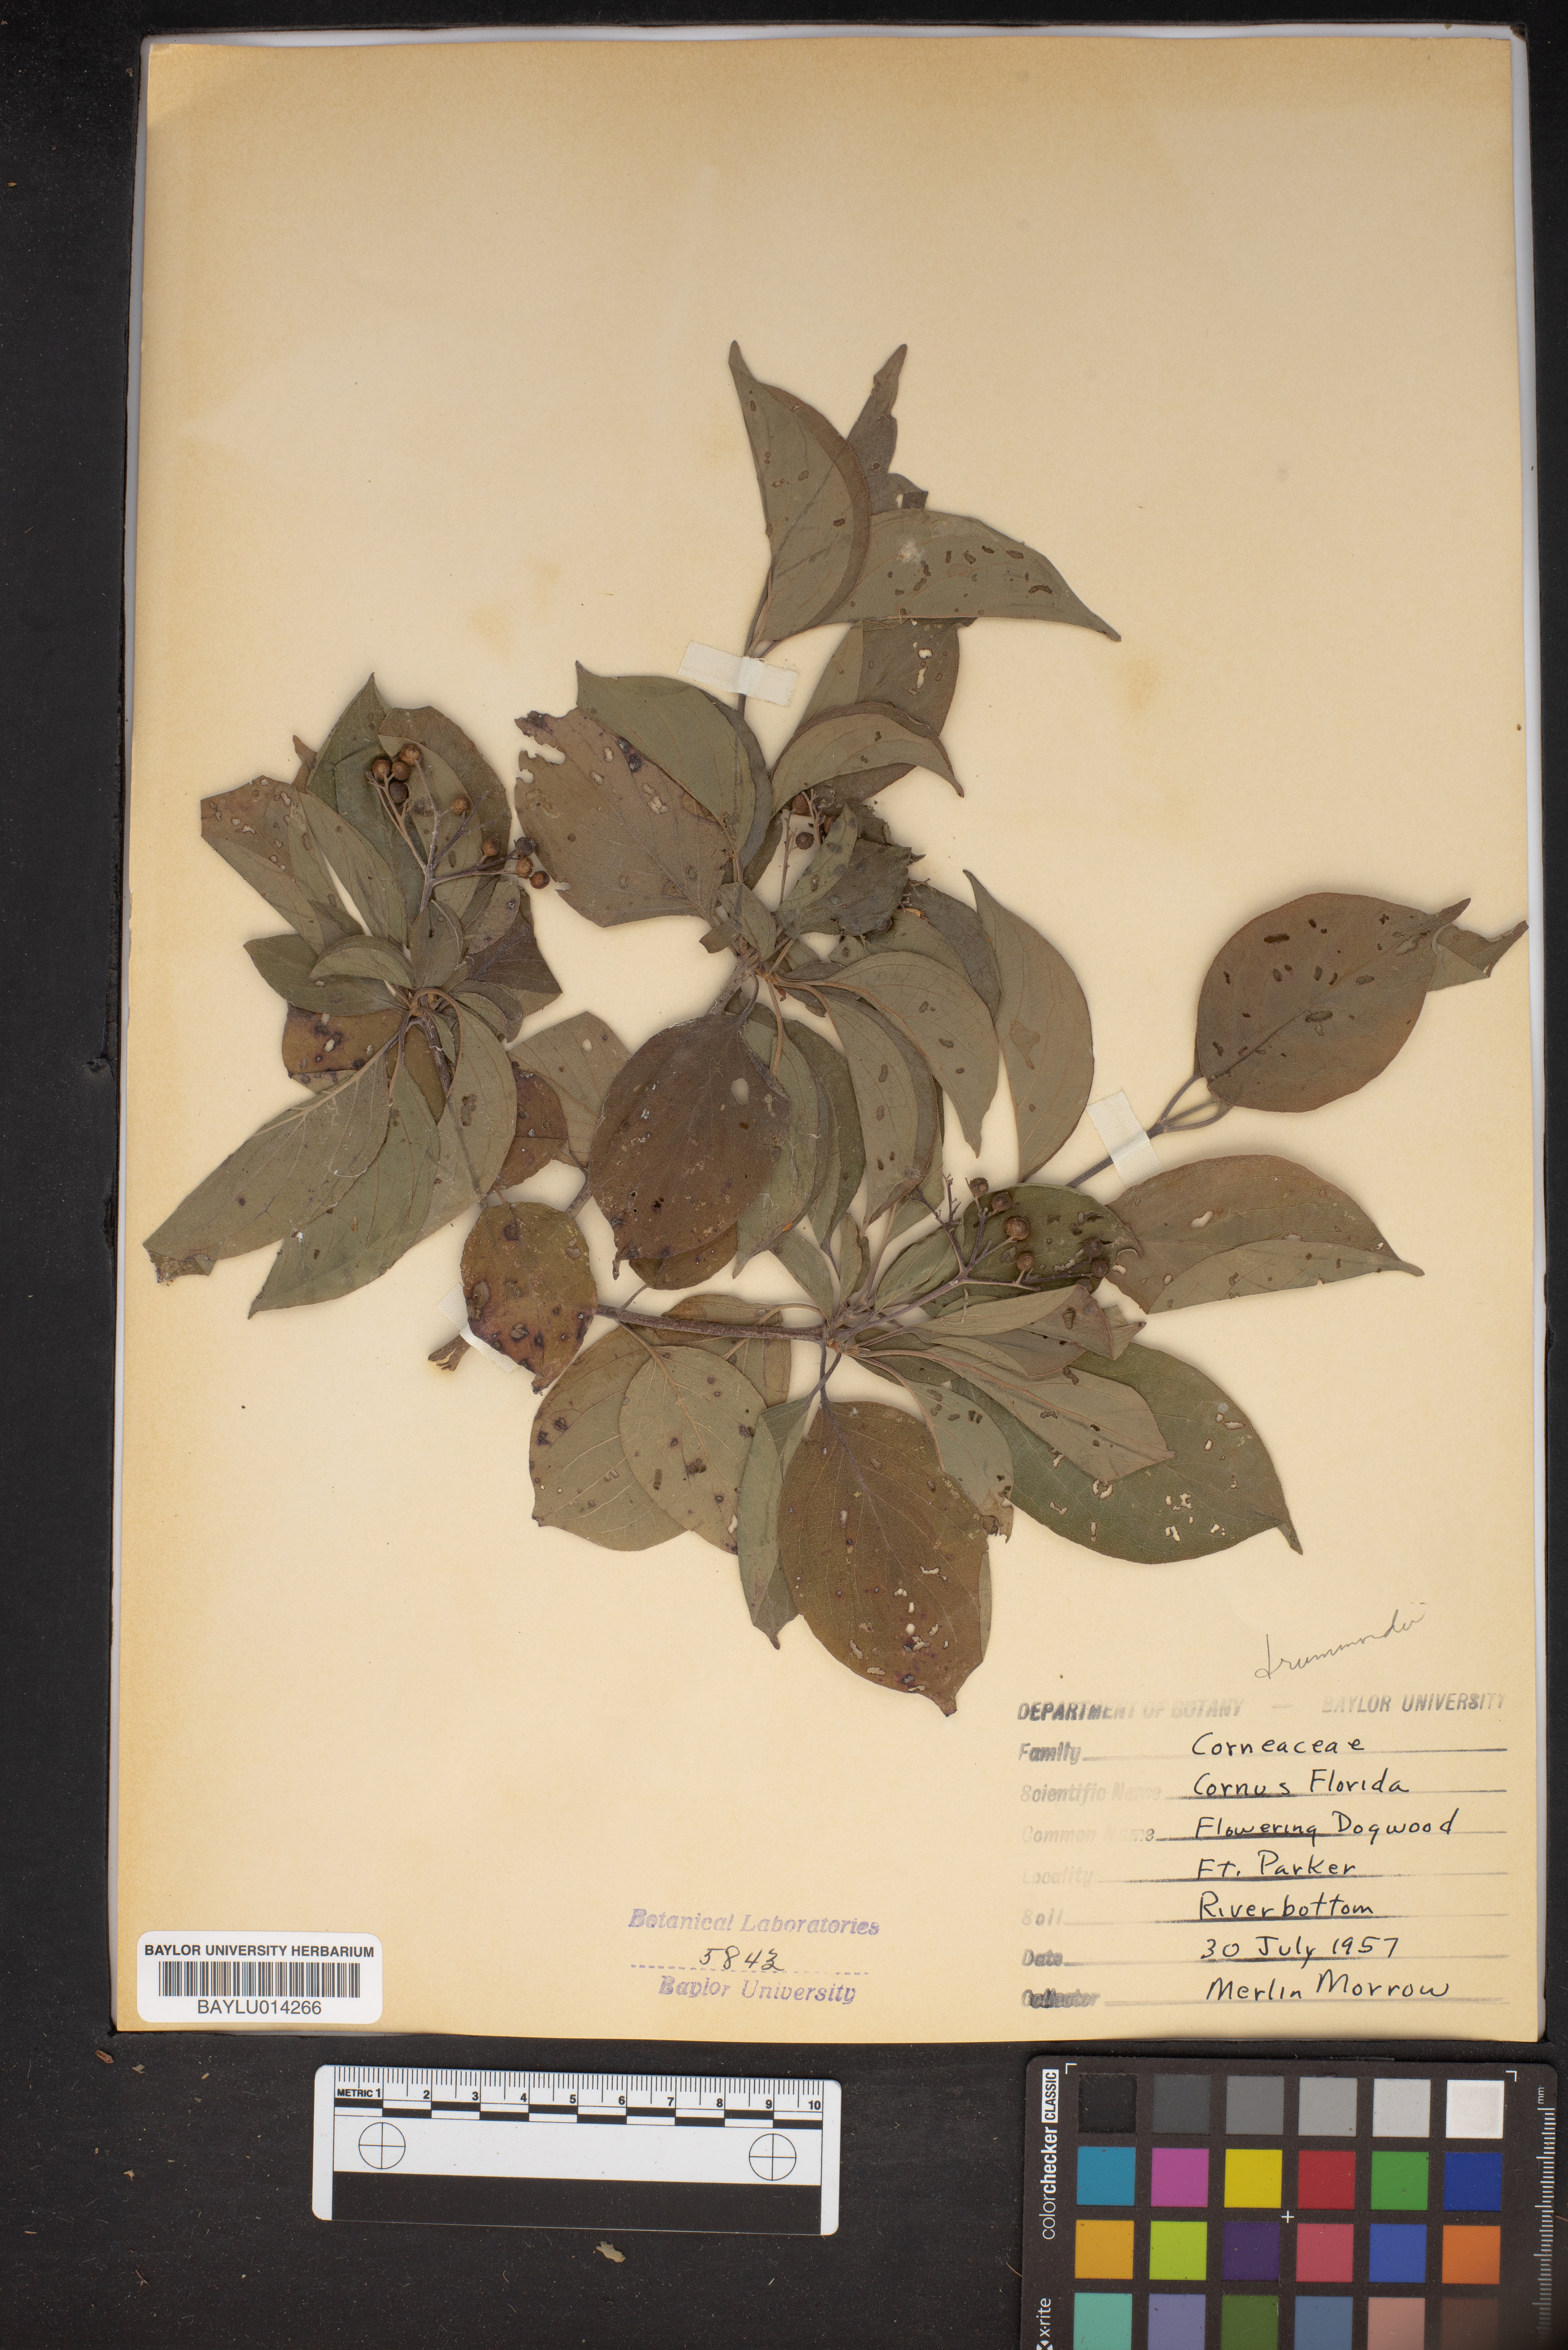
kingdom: Plantae
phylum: Tracheophyta
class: Magnoliopsida
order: Cornales
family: Cornaceae
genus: Cornus
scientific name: Cornus florida
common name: Flowering dogwood
